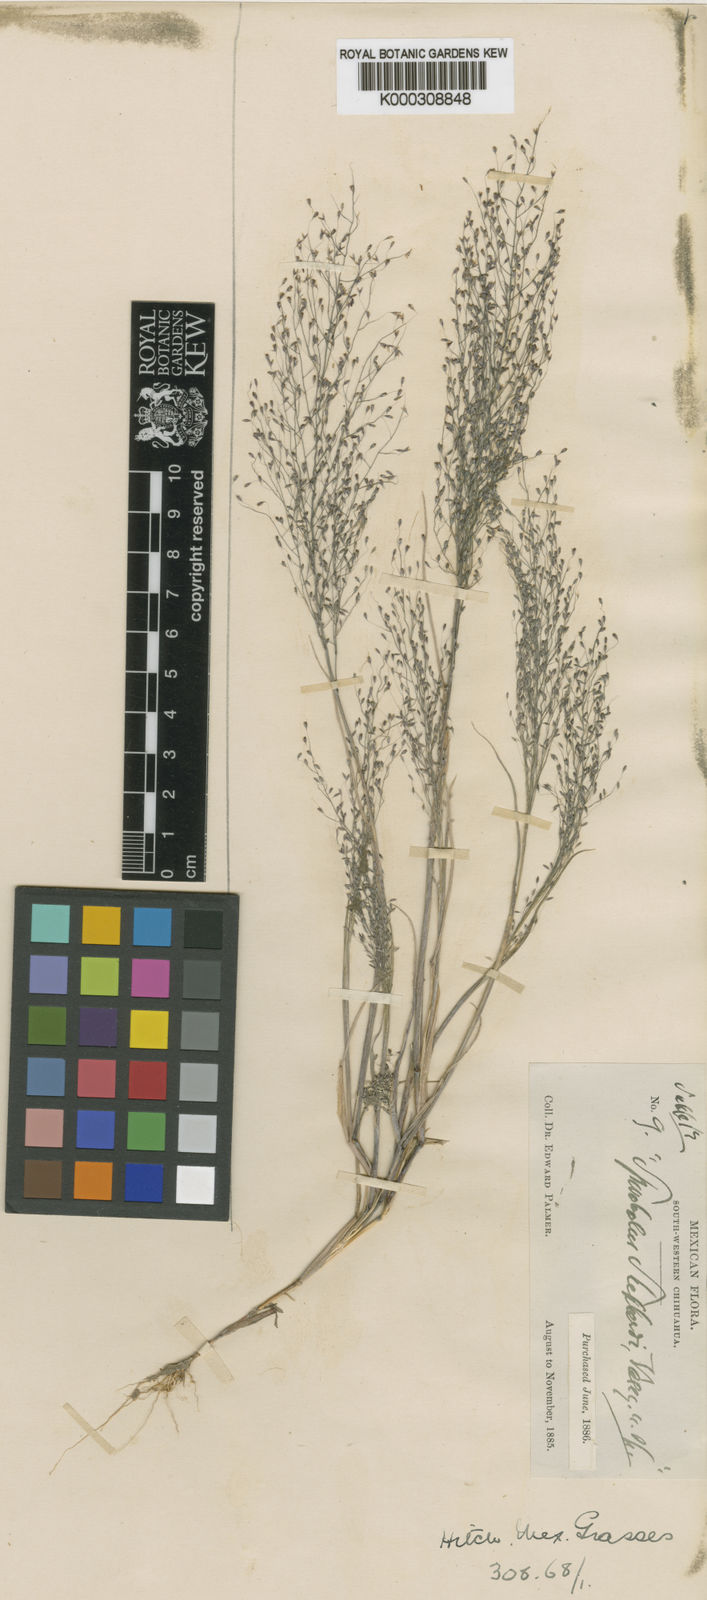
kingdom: Plantae
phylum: Tracheophyta
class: Liliopsida
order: Poales
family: Poaceae
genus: Blepharoneuron
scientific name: Blepharoneuron
